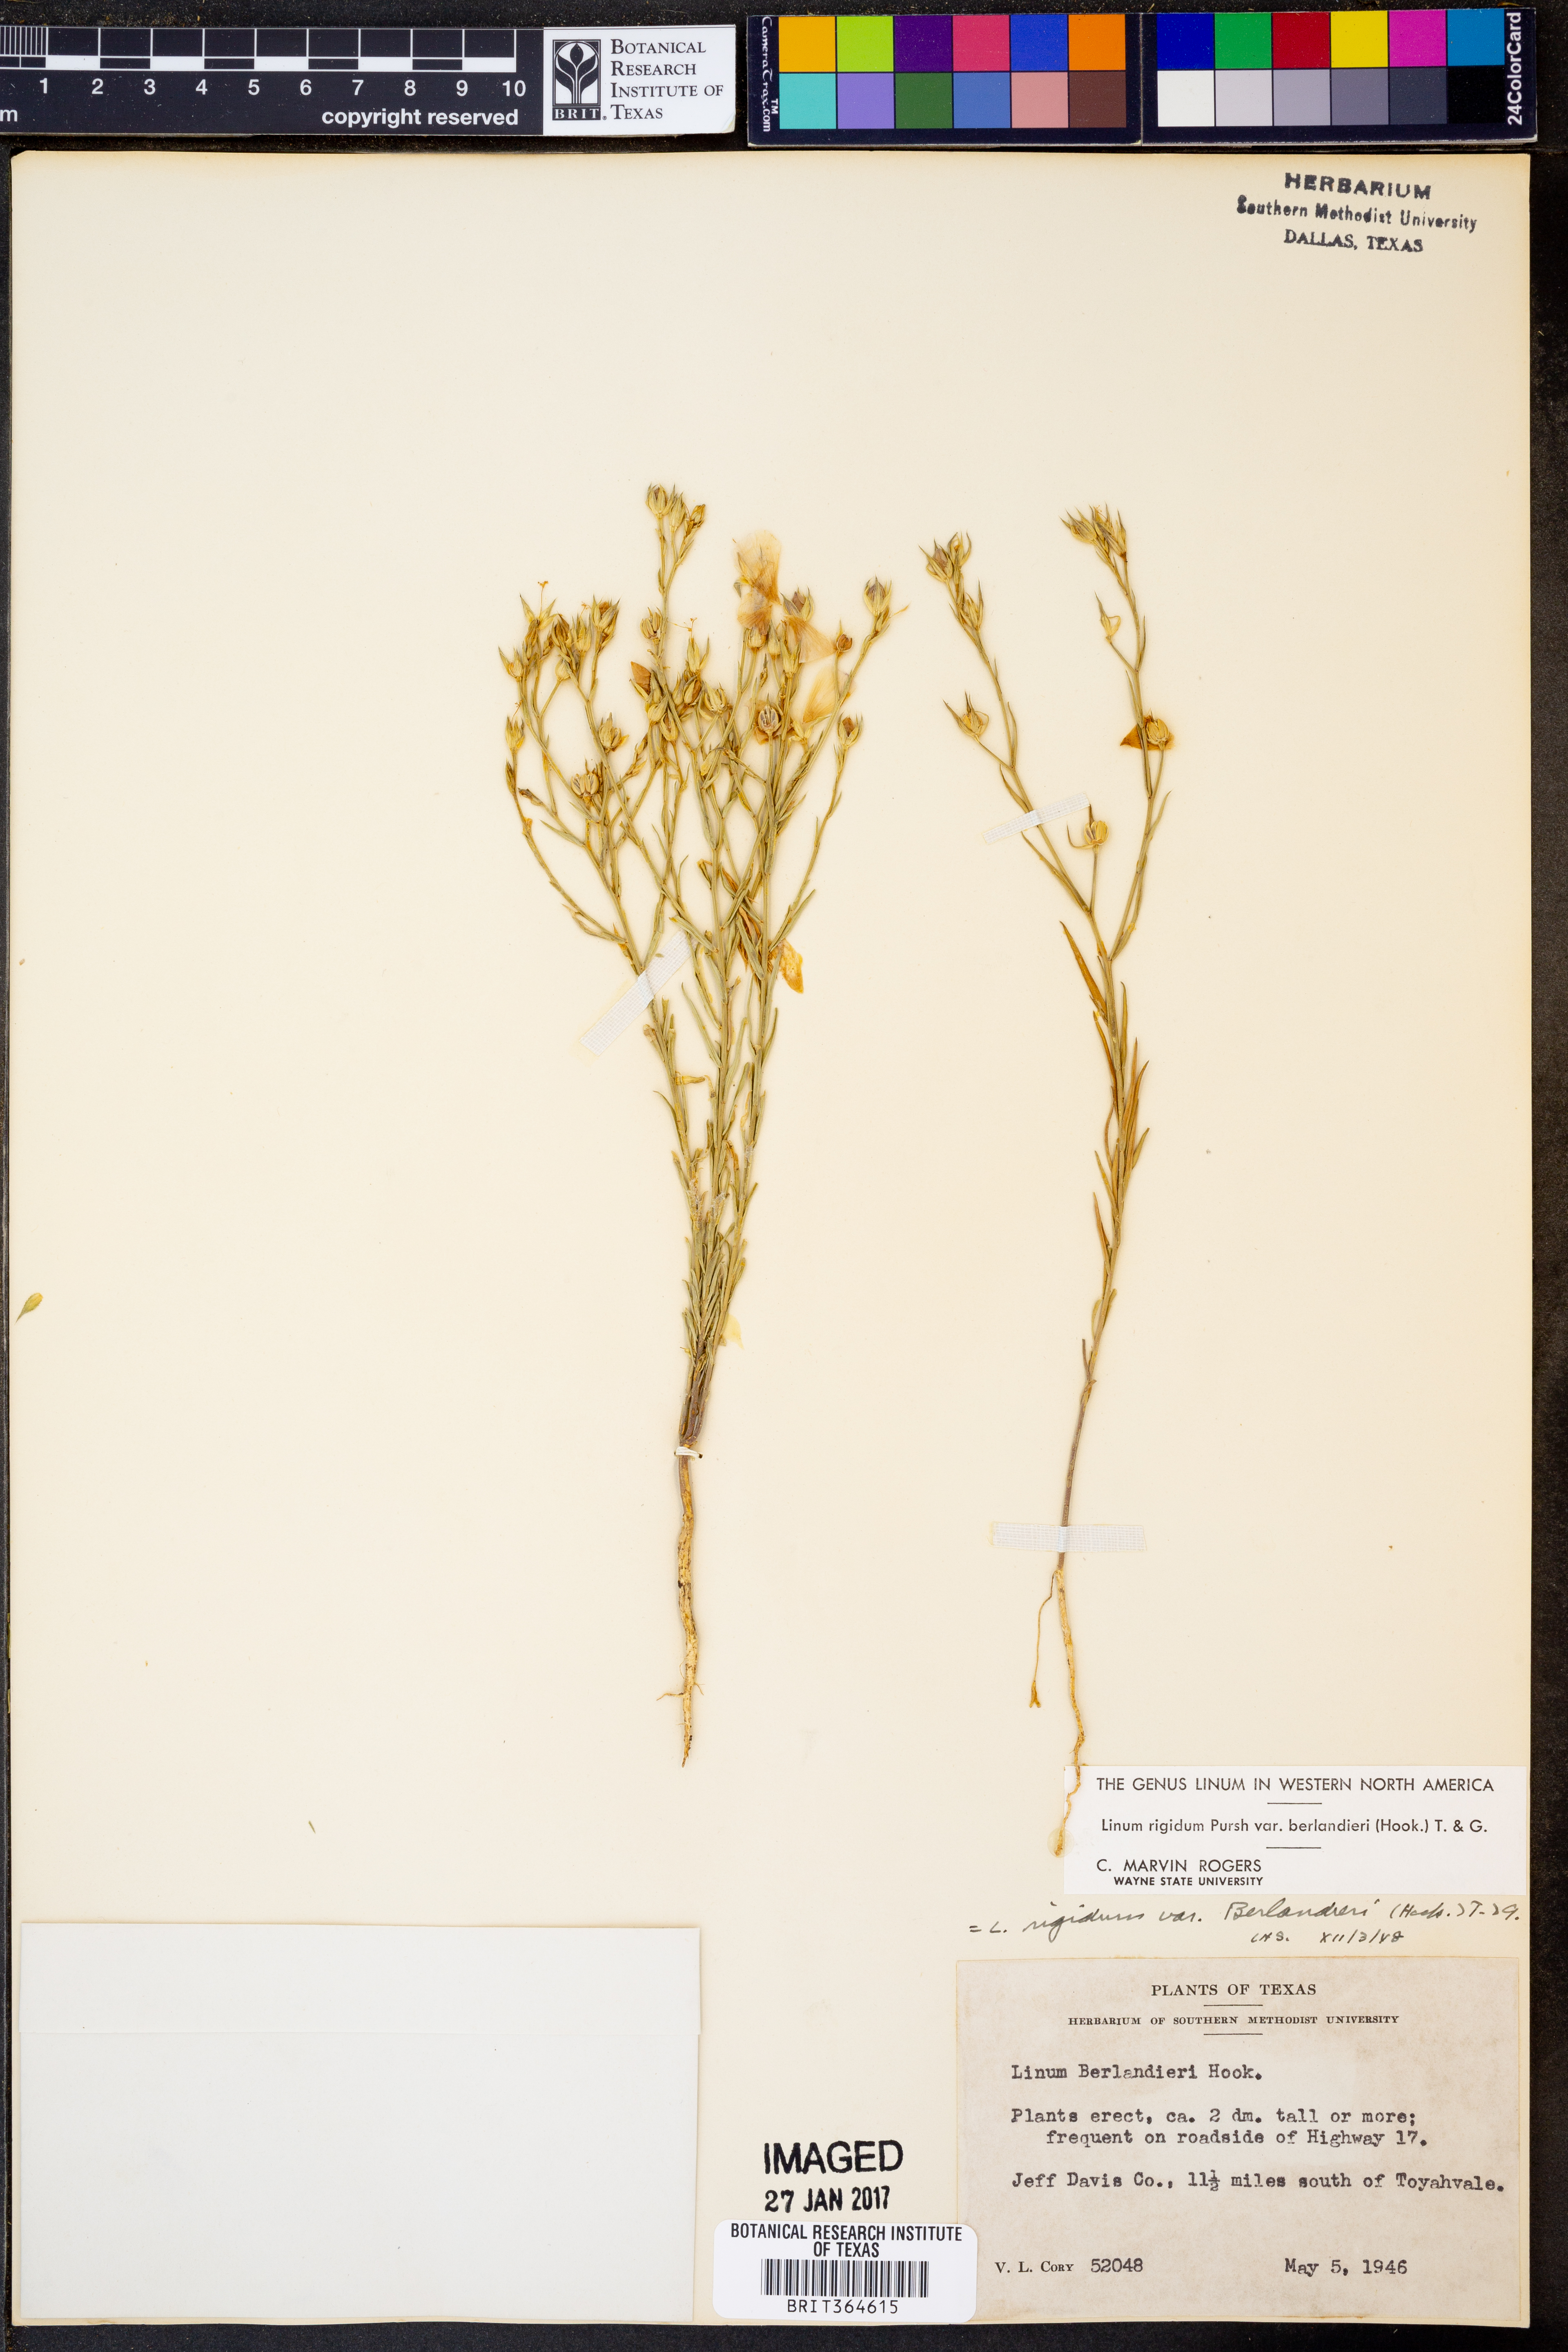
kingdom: Plantae
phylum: Tracheophyta
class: Magnoliopsida
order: Malpighiales
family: Linaceae
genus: Linum
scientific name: Linum berlandieri
